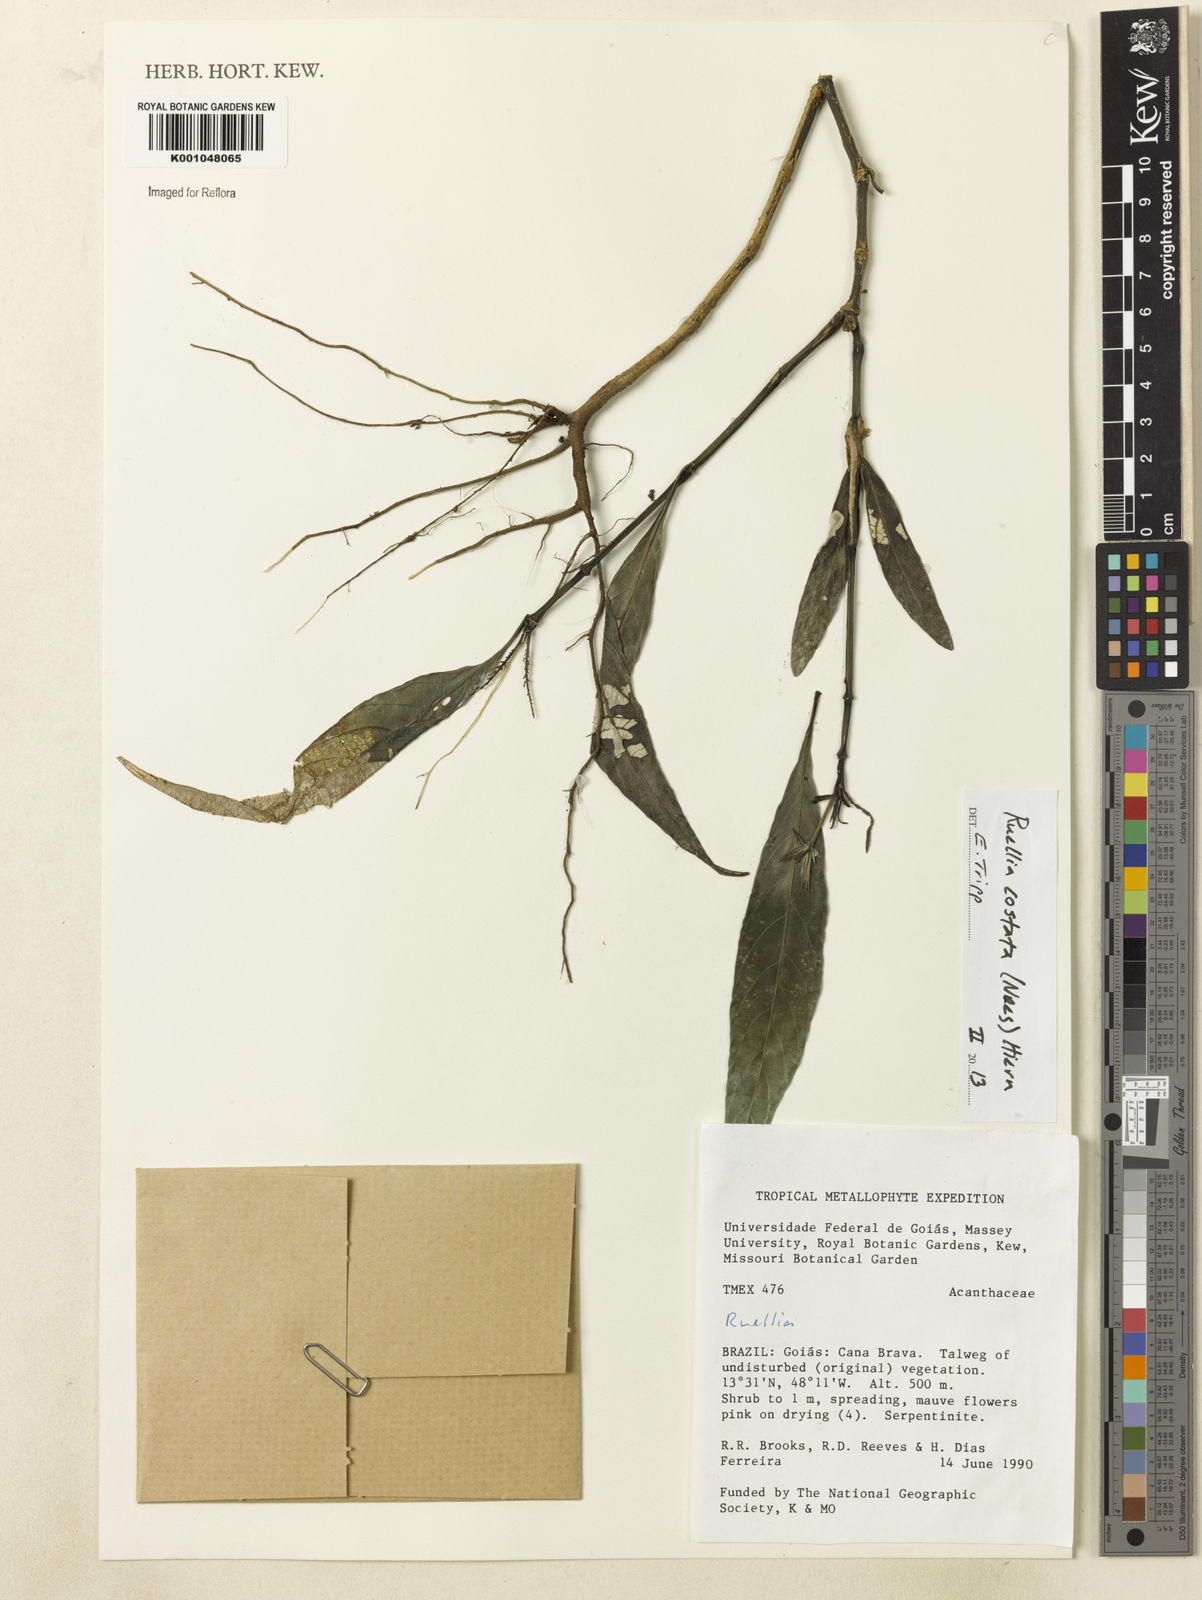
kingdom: Plantae
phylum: Tracheophyta
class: Magnoliopsida
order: Lamiales
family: Acanthaceae
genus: Ruellia
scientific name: Ruellia costata
